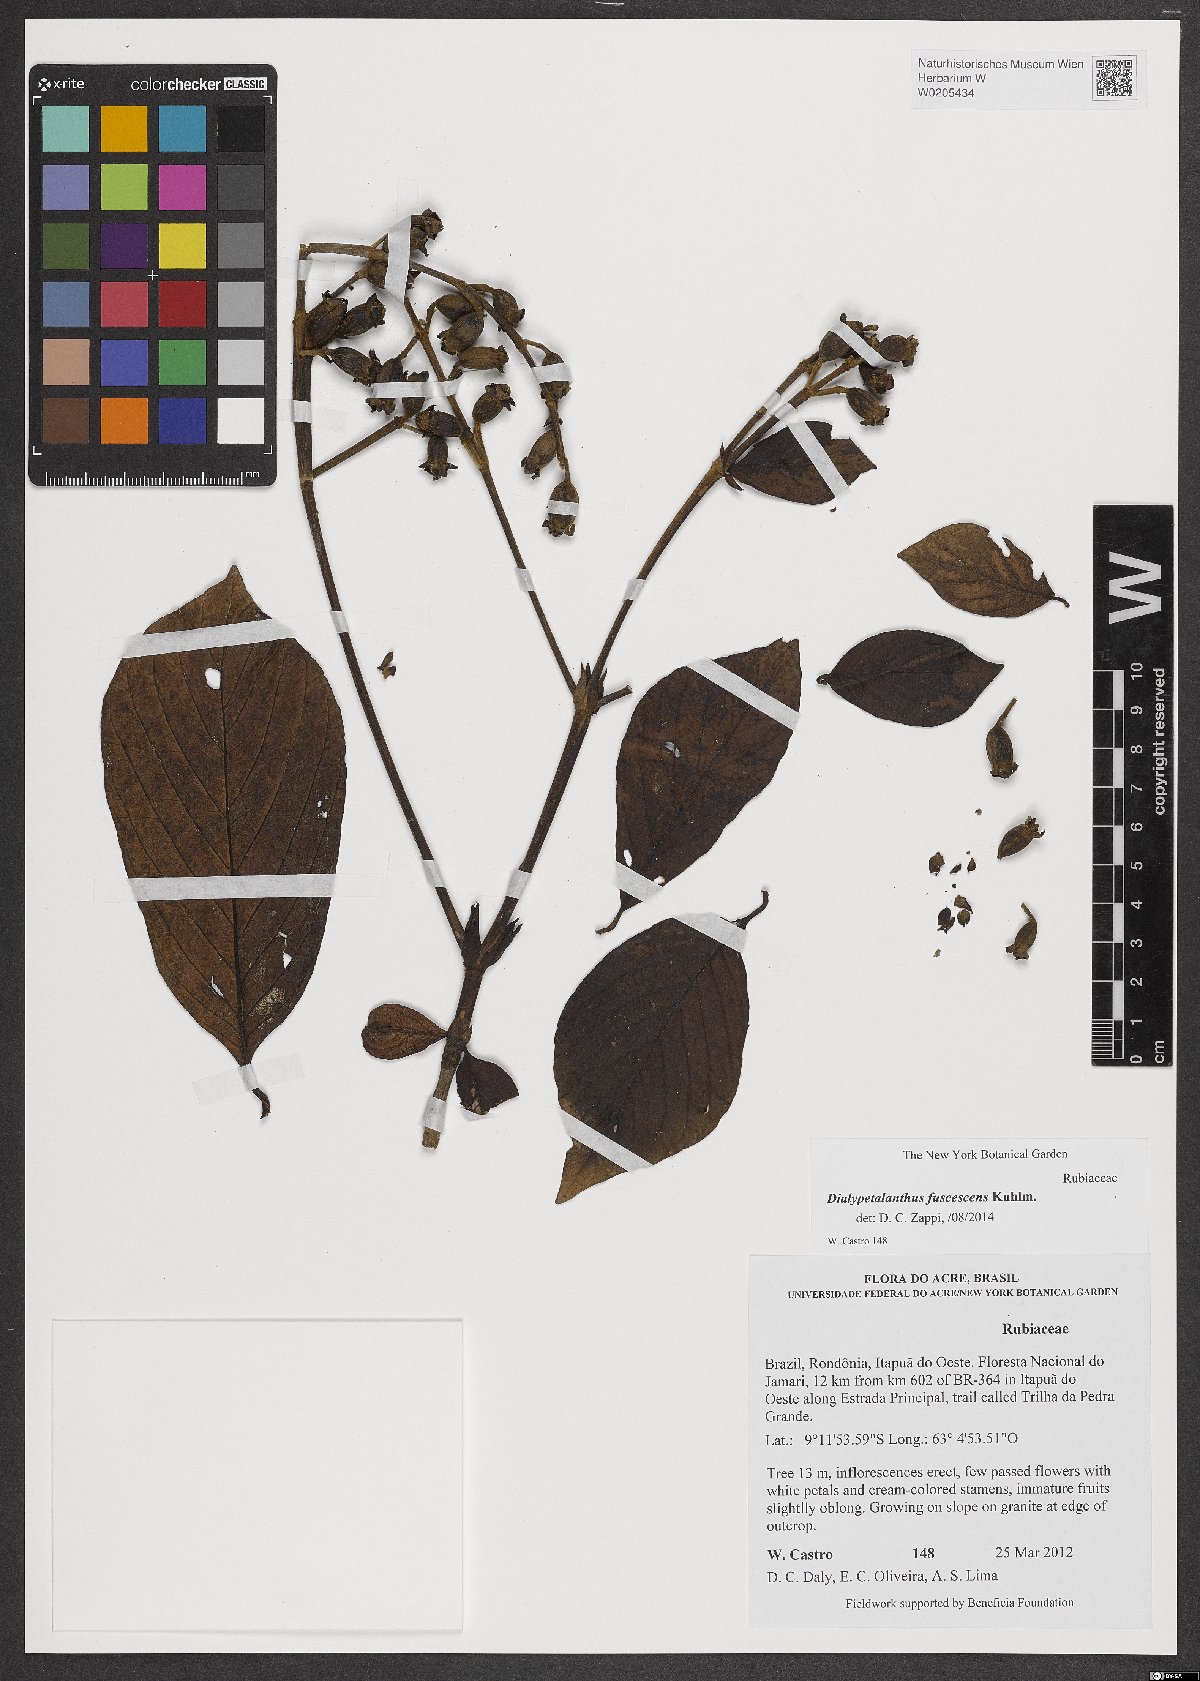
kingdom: Plantae
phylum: Tracheophyta
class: Magnoliopsida
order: Gentianales
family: Rubiaceae
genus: Dialypetalanthus
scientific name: Dialypetalanthus fuscescens
